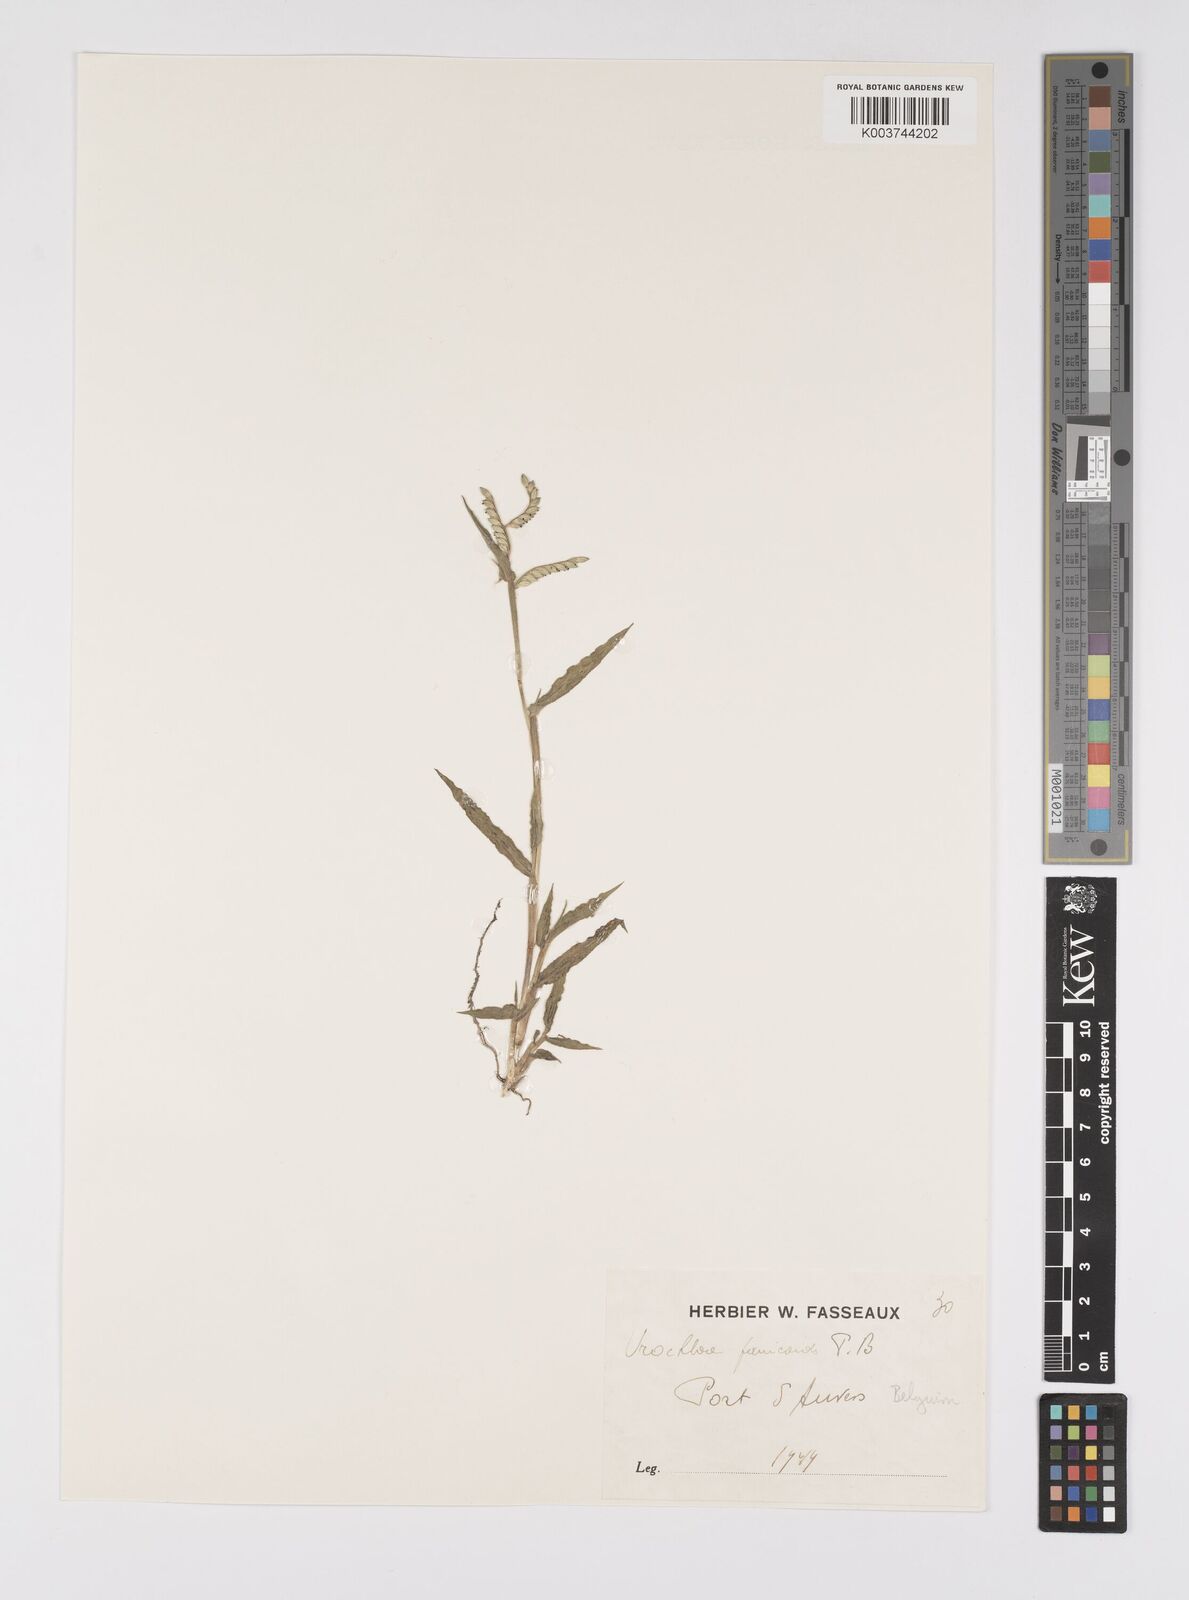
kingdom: Plantae
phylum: Tracheophyta
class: Liliopsida
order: Poales
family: Poaceae
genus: Urochloa
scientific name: Urochloa panicoides
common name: Sharp-flowered signal-grass
